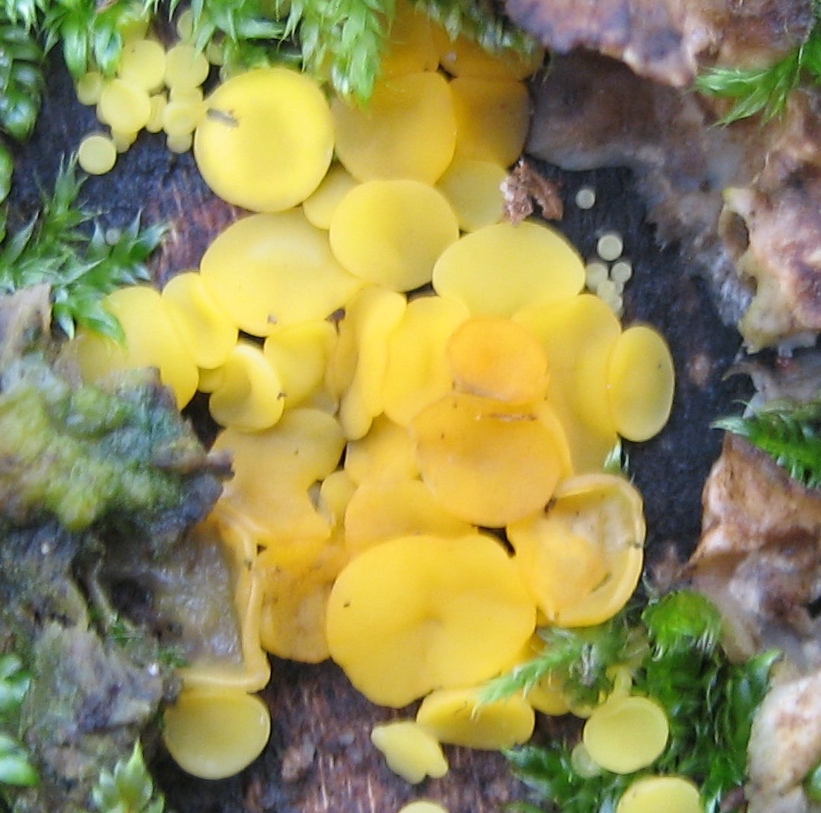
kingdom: Fungi
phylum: Ascomycota
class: Leotiomycetes
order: Helotiales
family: Pezizellaceae
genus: Calycina
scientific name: Calycina citrina
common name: almindelig gulskive
